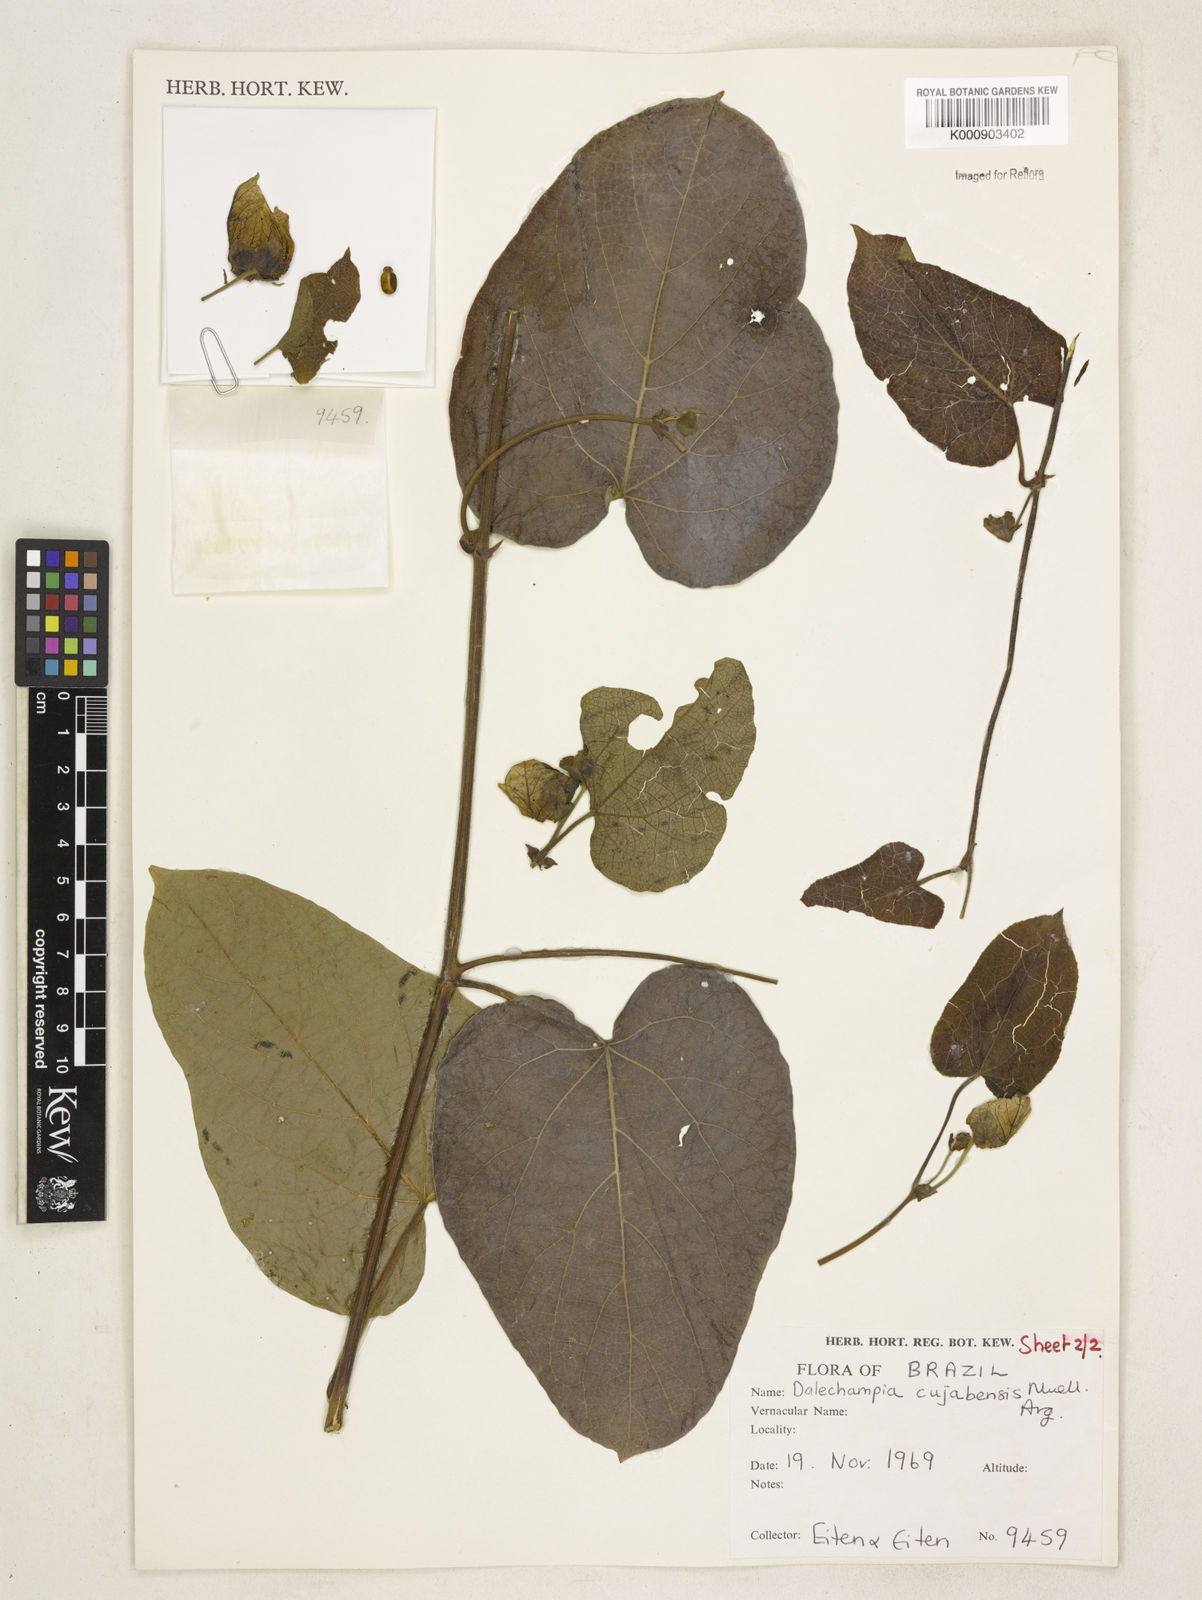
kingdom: Plantae
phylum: Tracheophyta
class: Magnoliopsida
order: Malpighiales
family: Euphorbiaceae
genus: Dalechampia
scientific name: Dalechampia
